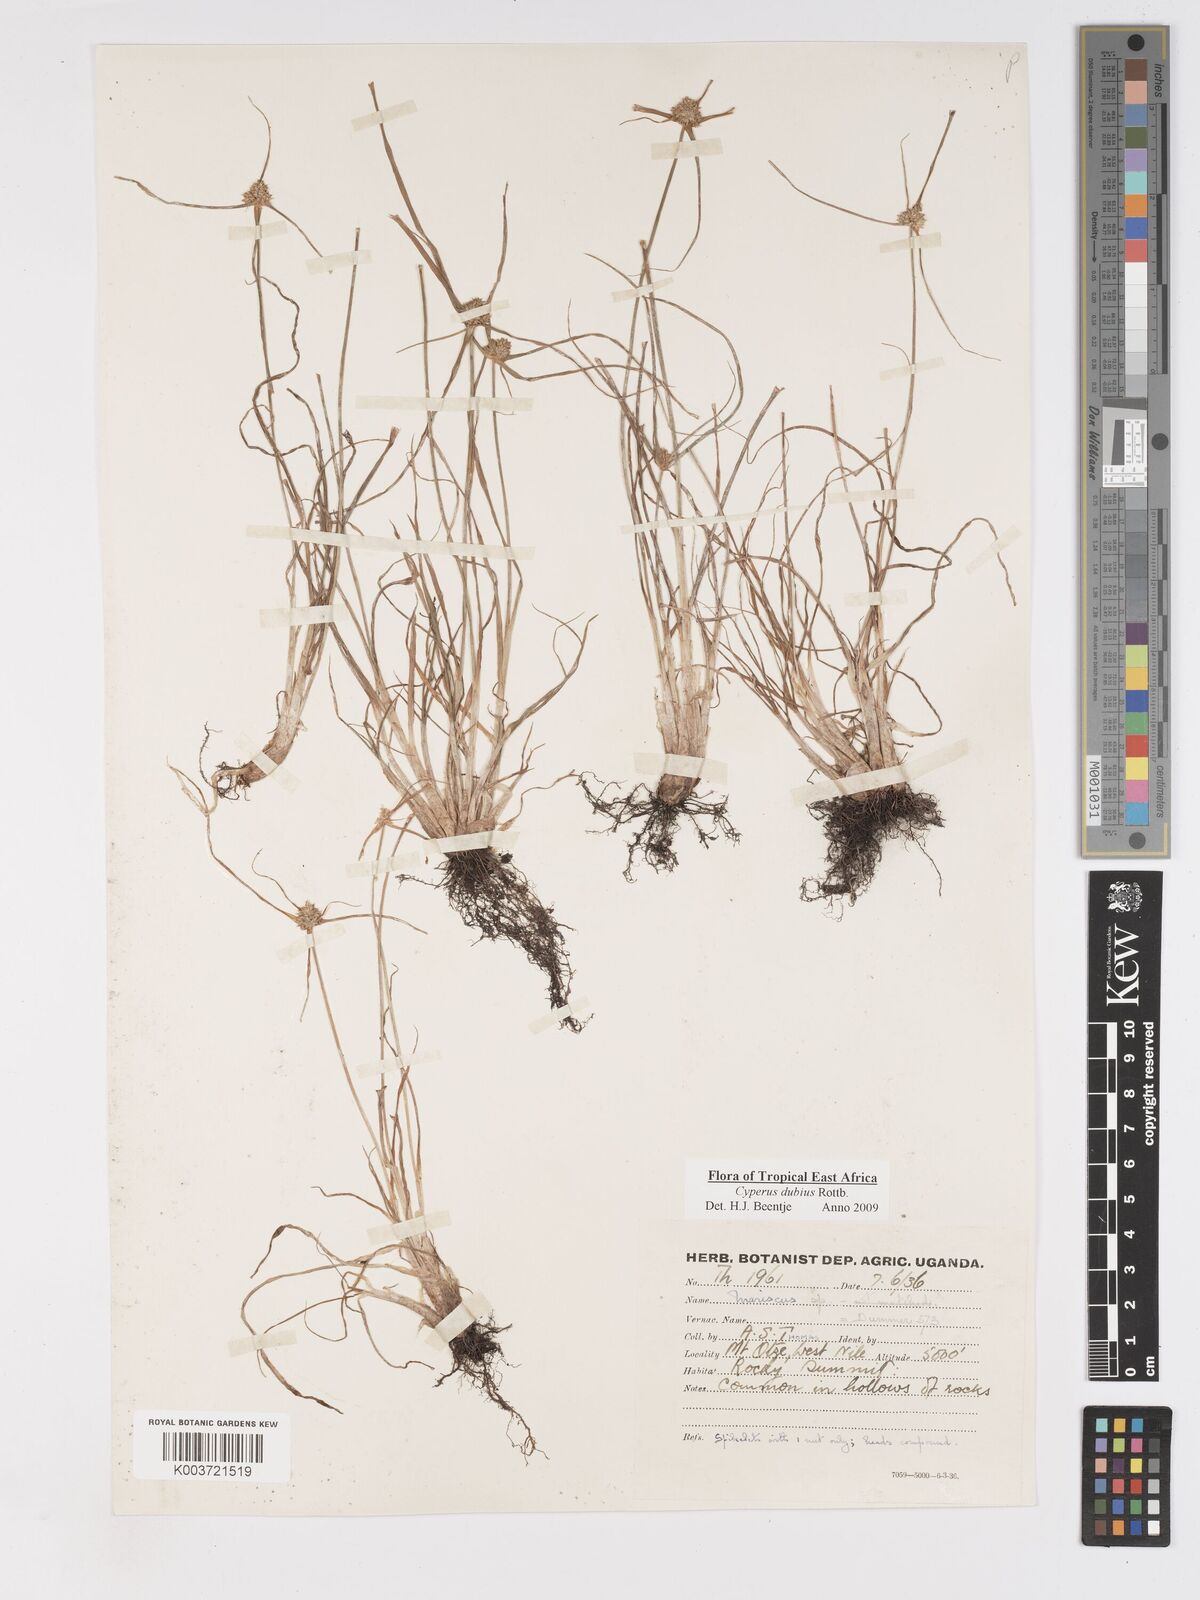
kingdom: Plantae
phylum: Tracheophyta
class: Liliopsida
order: Poales
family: Cyperaceae
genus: Cyperus
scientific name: Cyperus dubius
